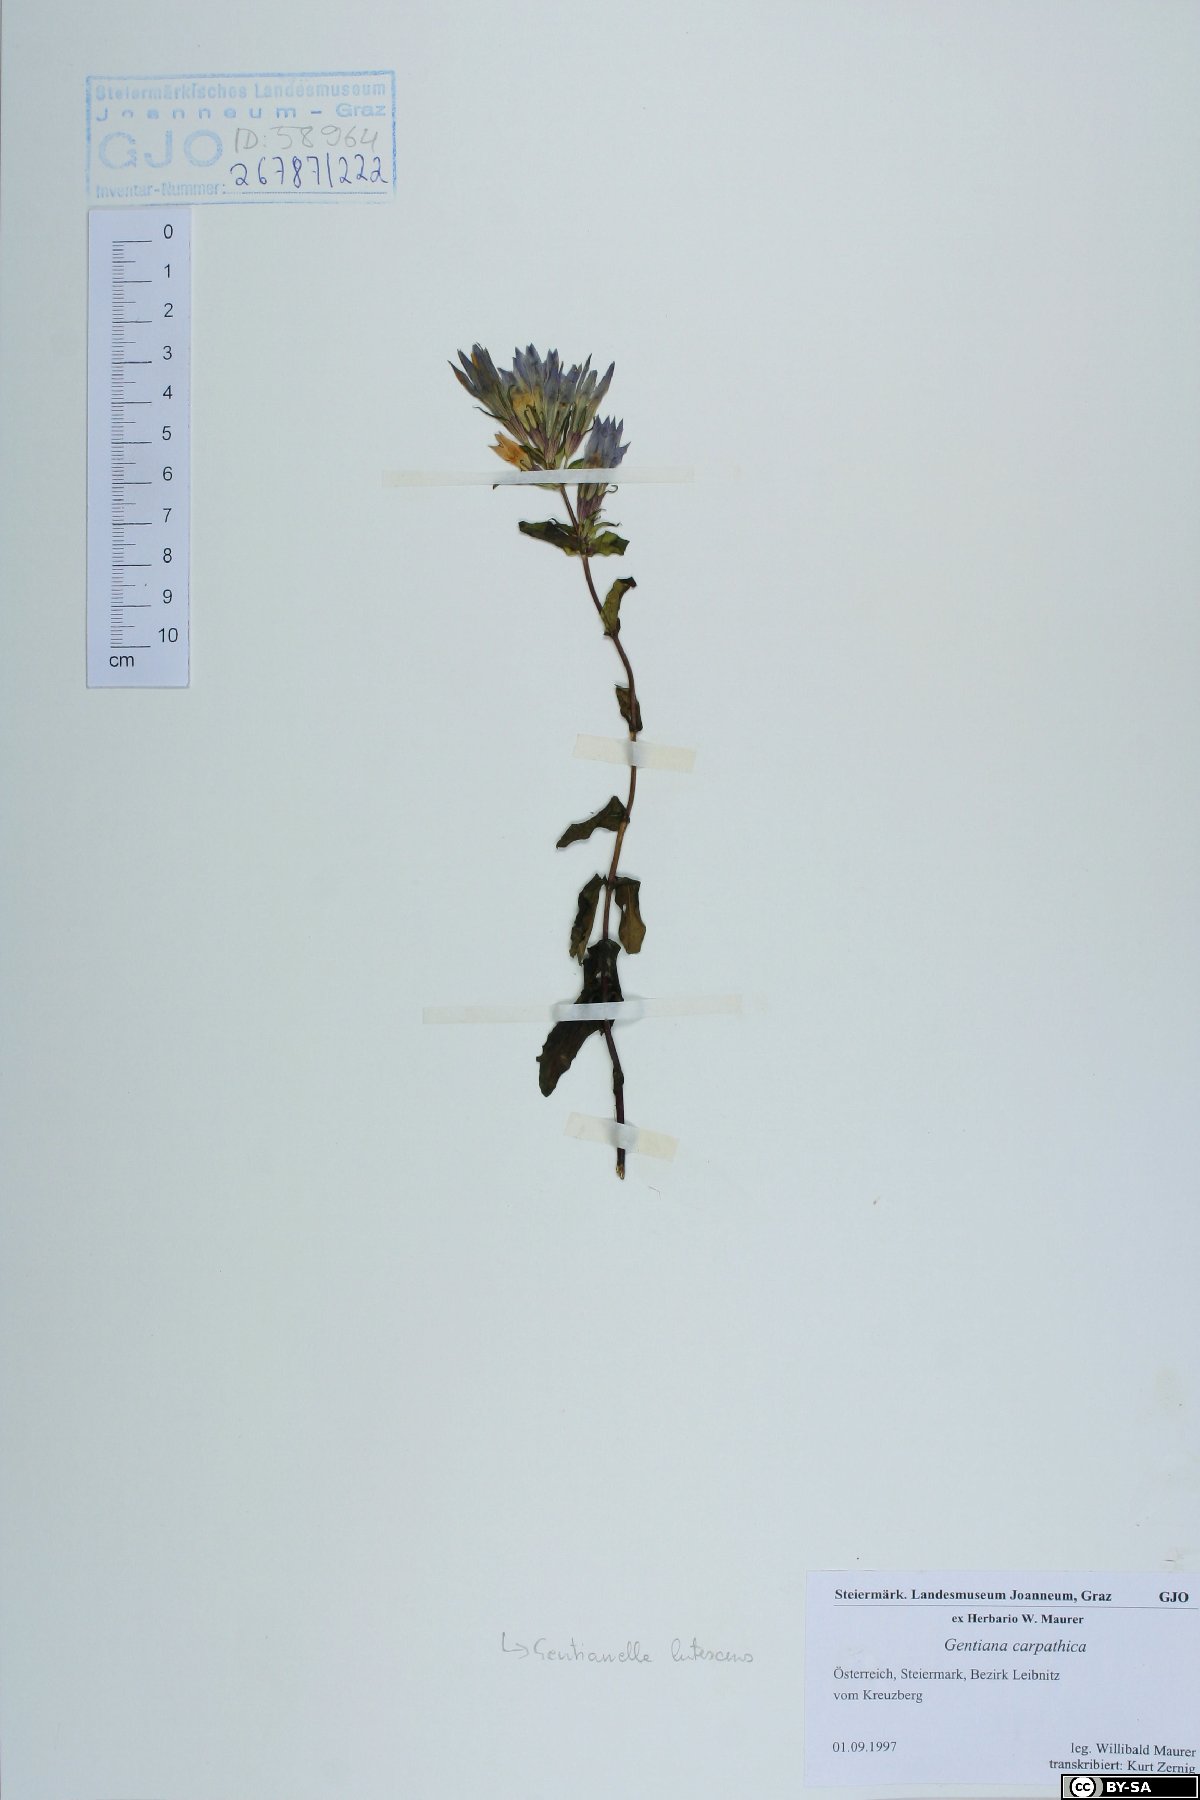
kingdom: Plantae
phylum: Tracheophyta
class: Magnoliopsida
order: Gentianales
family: Gentianaceae
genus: Gentianella
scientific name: Gentianella praecox
